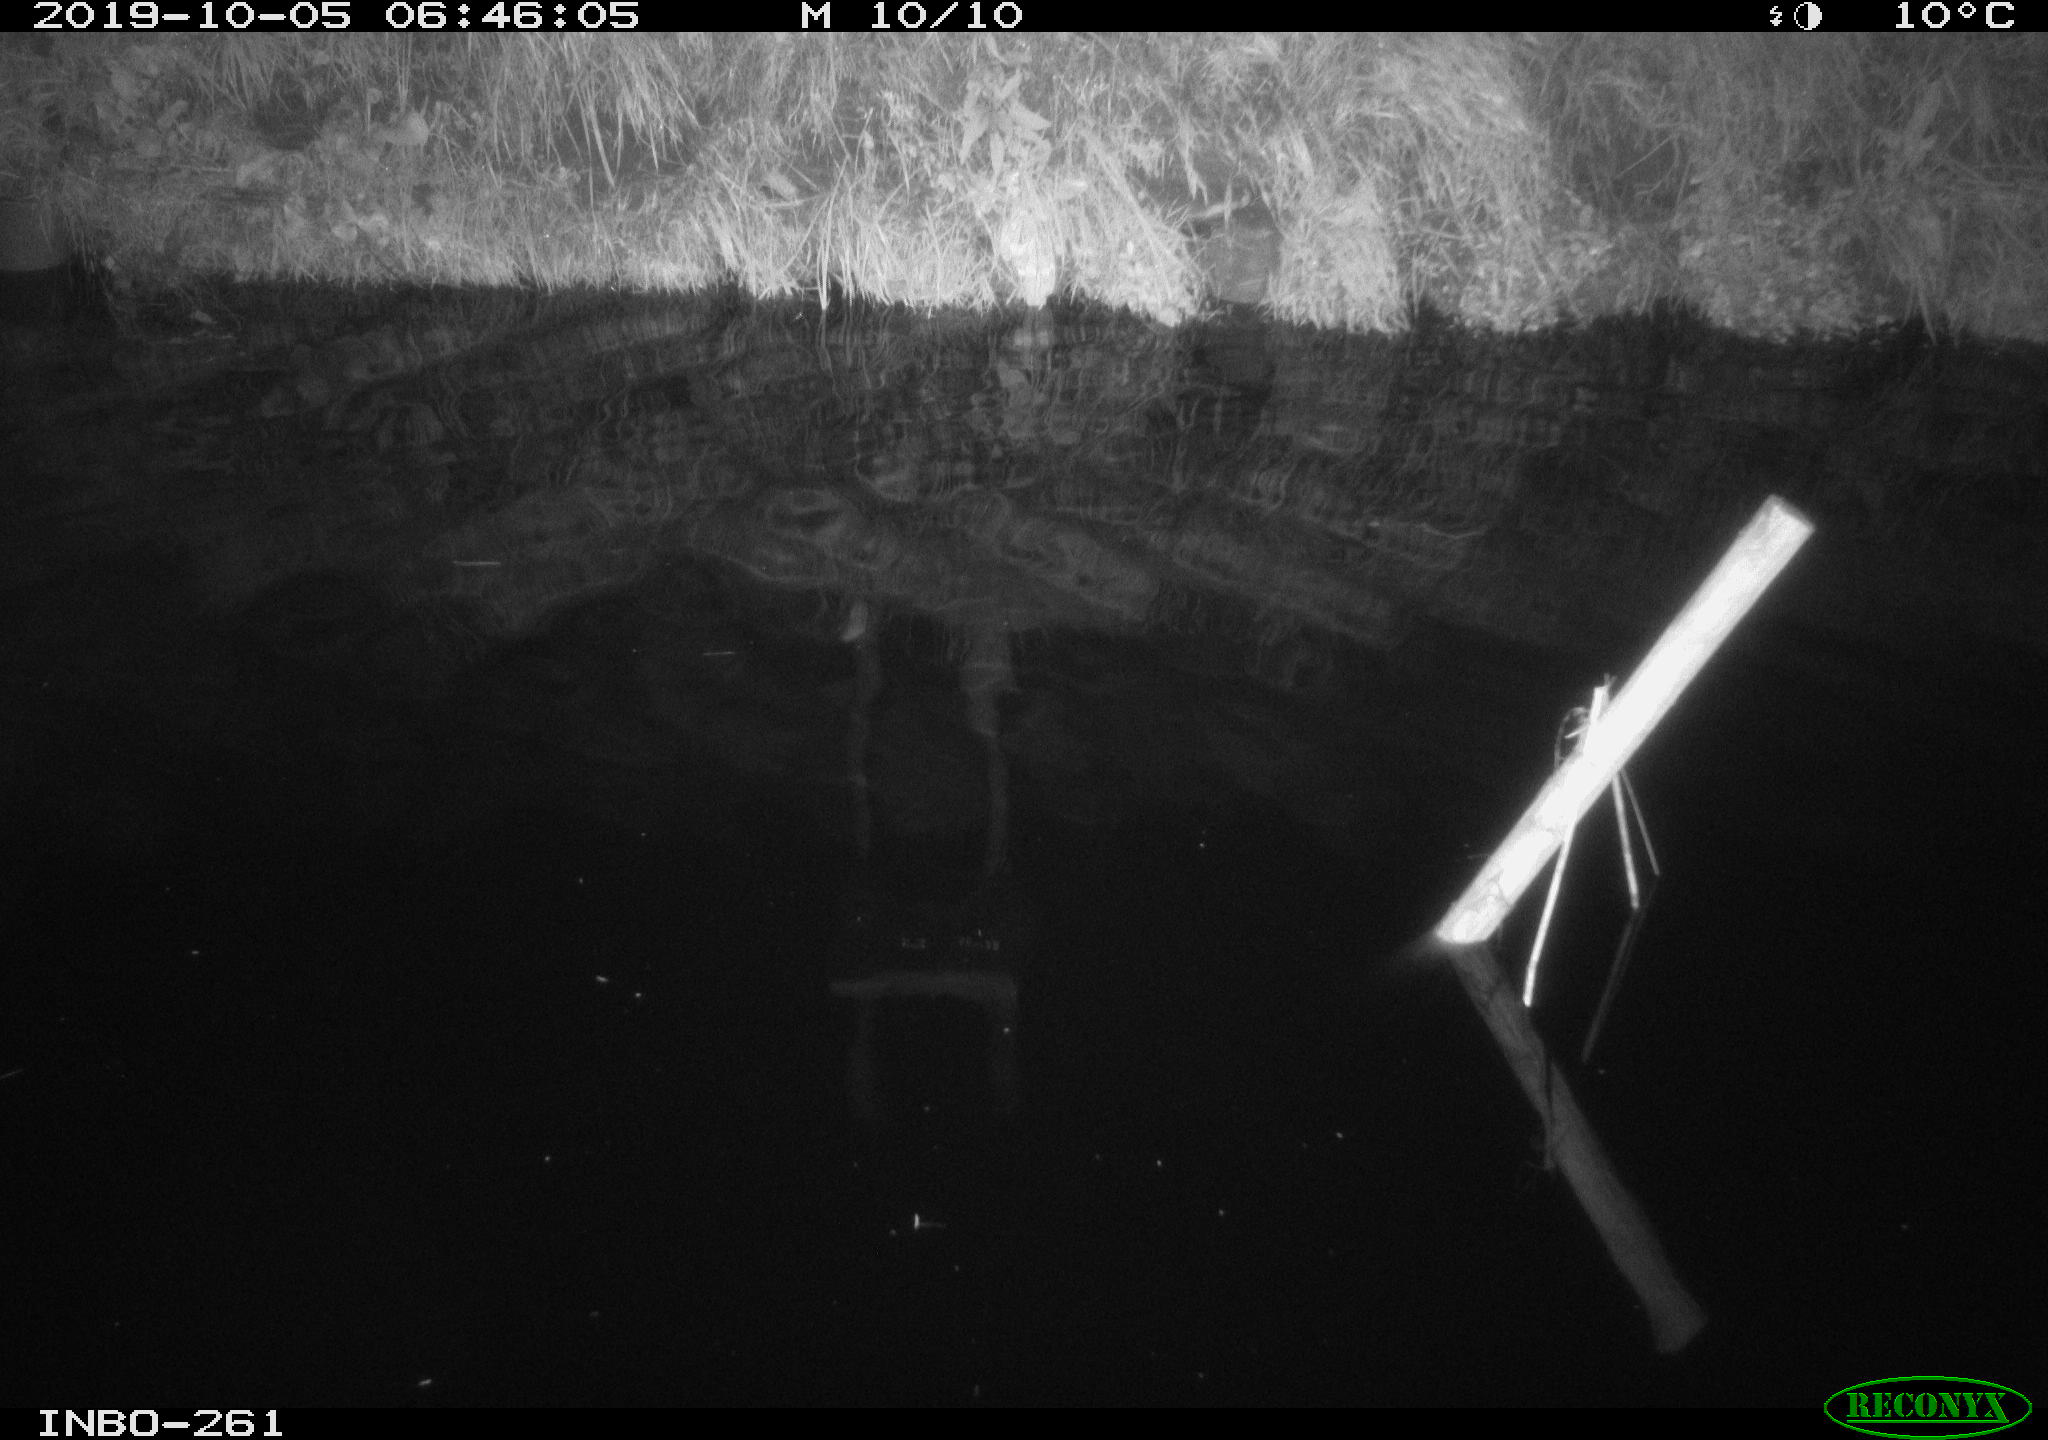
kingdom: Animalia
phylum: Chordata
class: Aves
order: Anseriformes
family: Anatidae
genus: Anas
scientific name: Anas platyrhynchos
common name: Mallard
